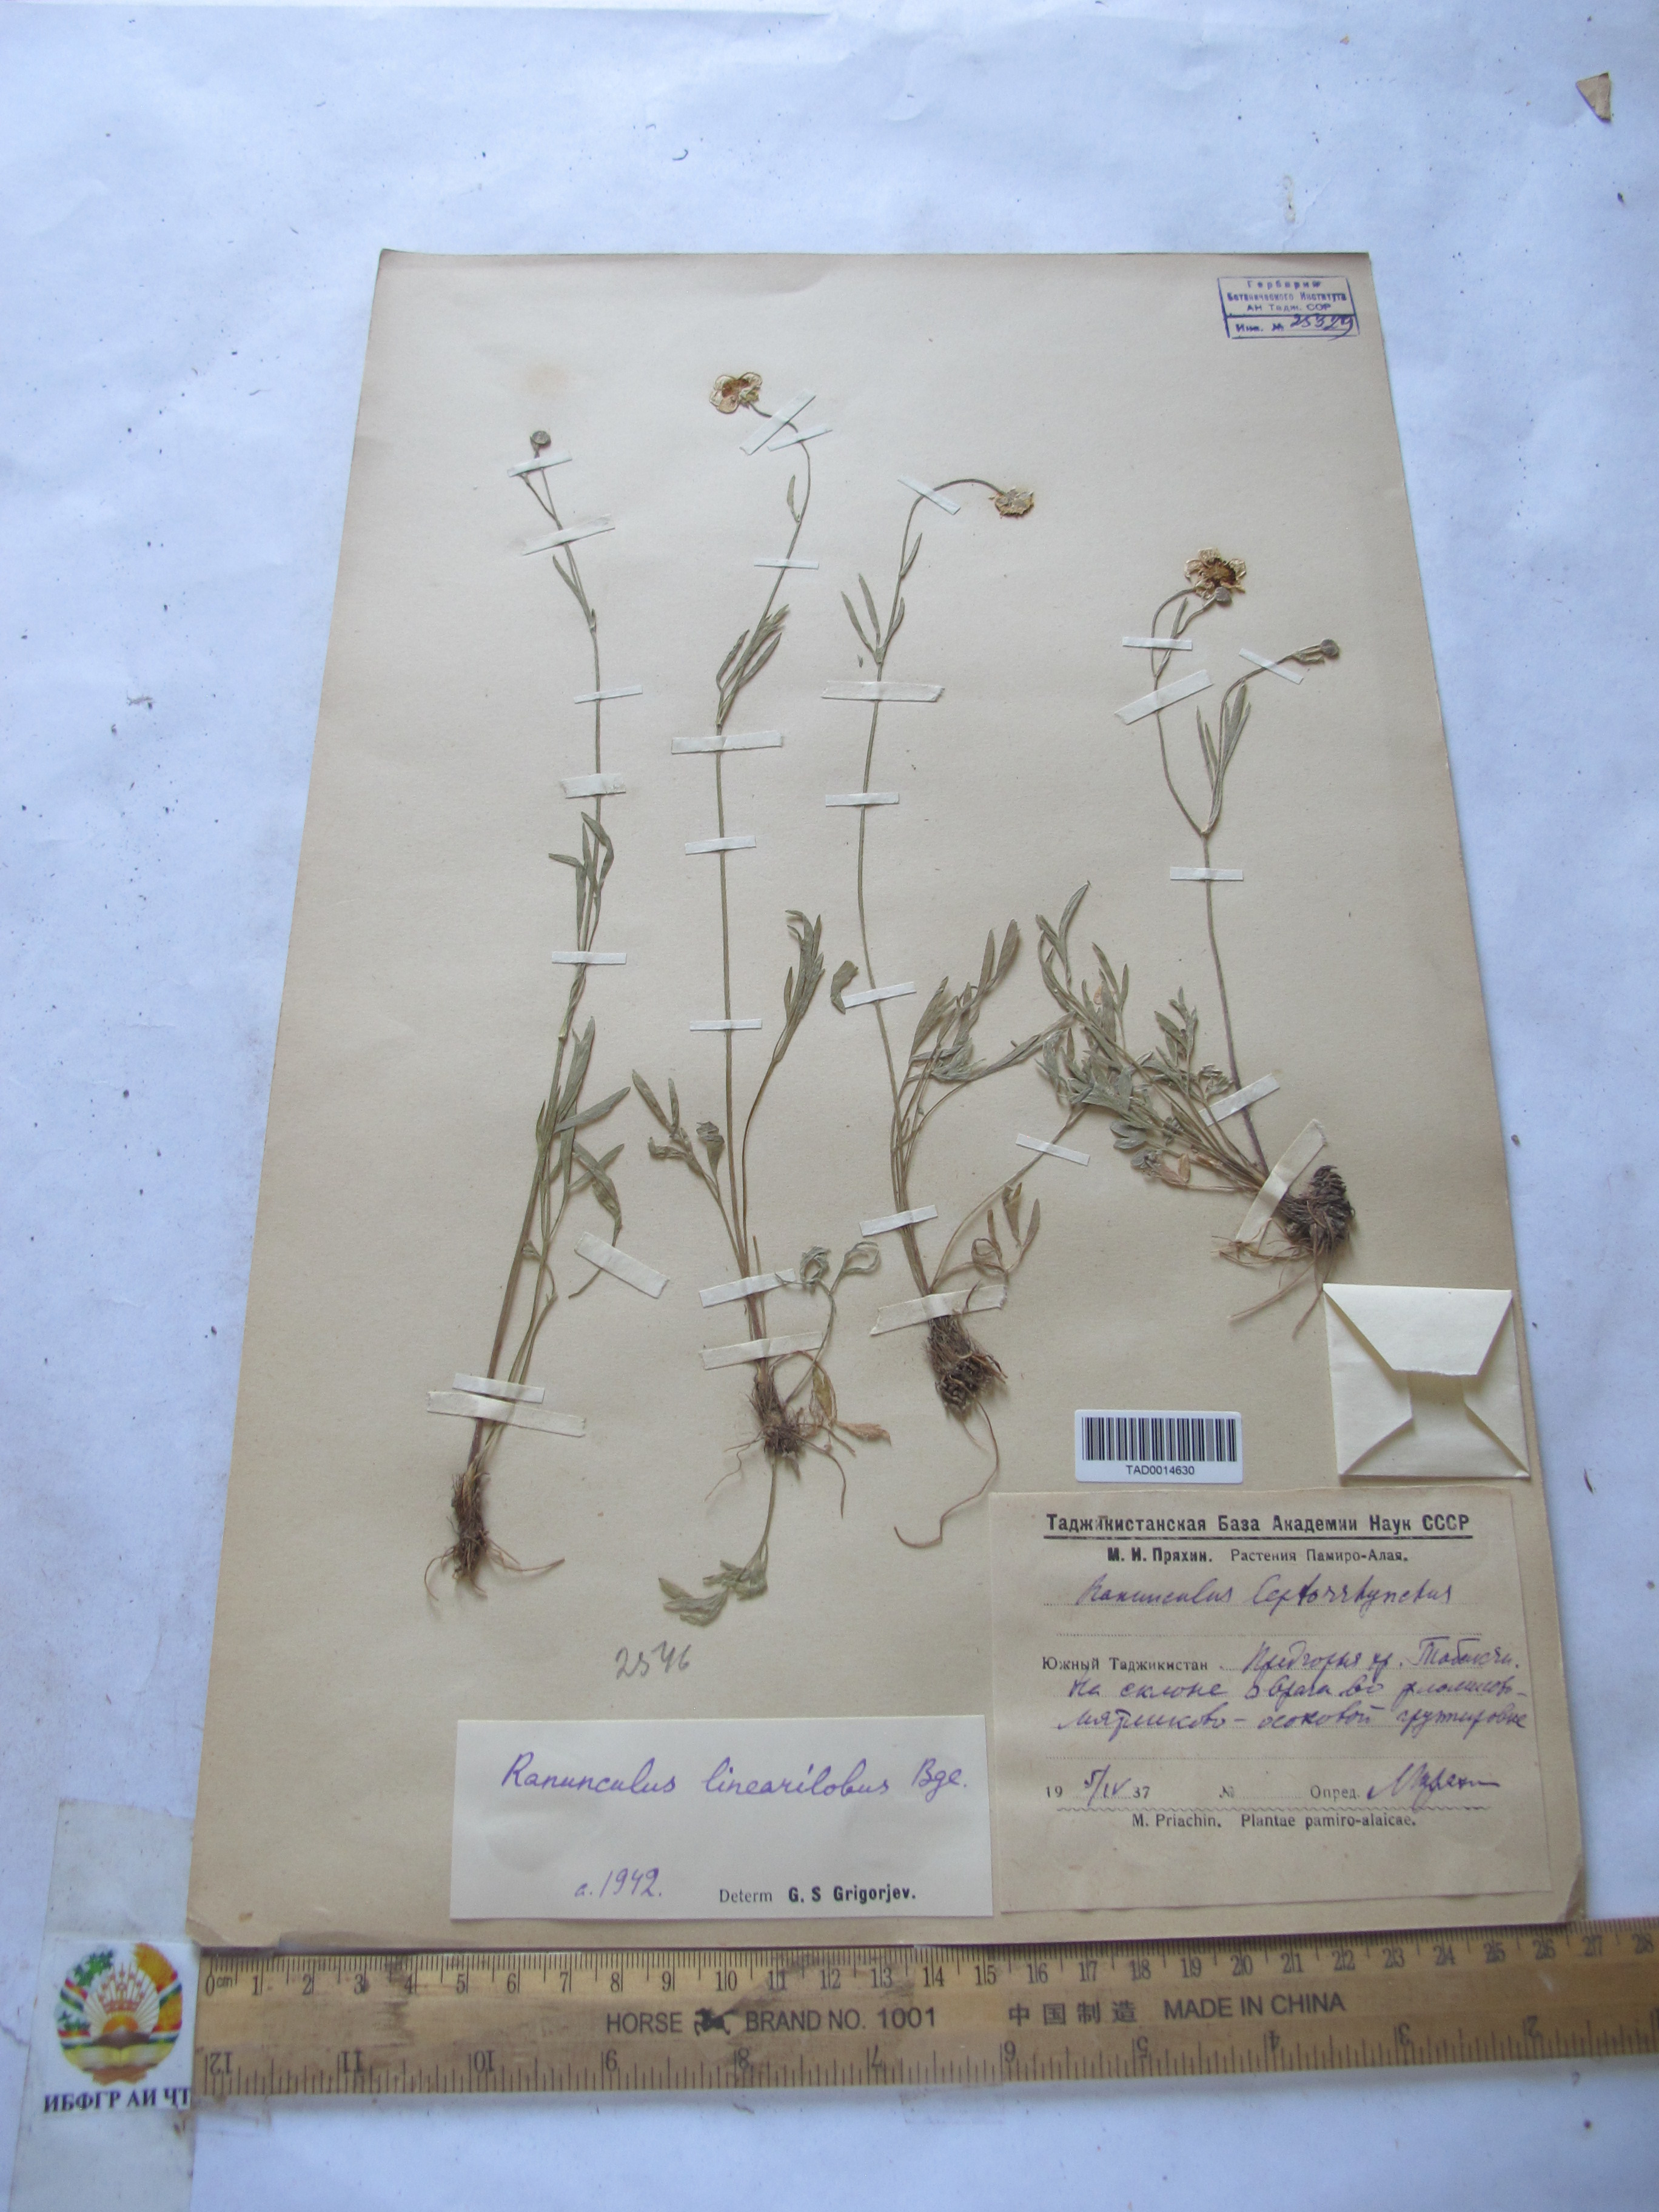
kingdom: Plantae
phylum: Tracheophyta
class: Magnoliopsida
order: Ranunculales
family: Ranunculaceae
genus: Ranunculus
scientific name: Ranunculus linearilobus
